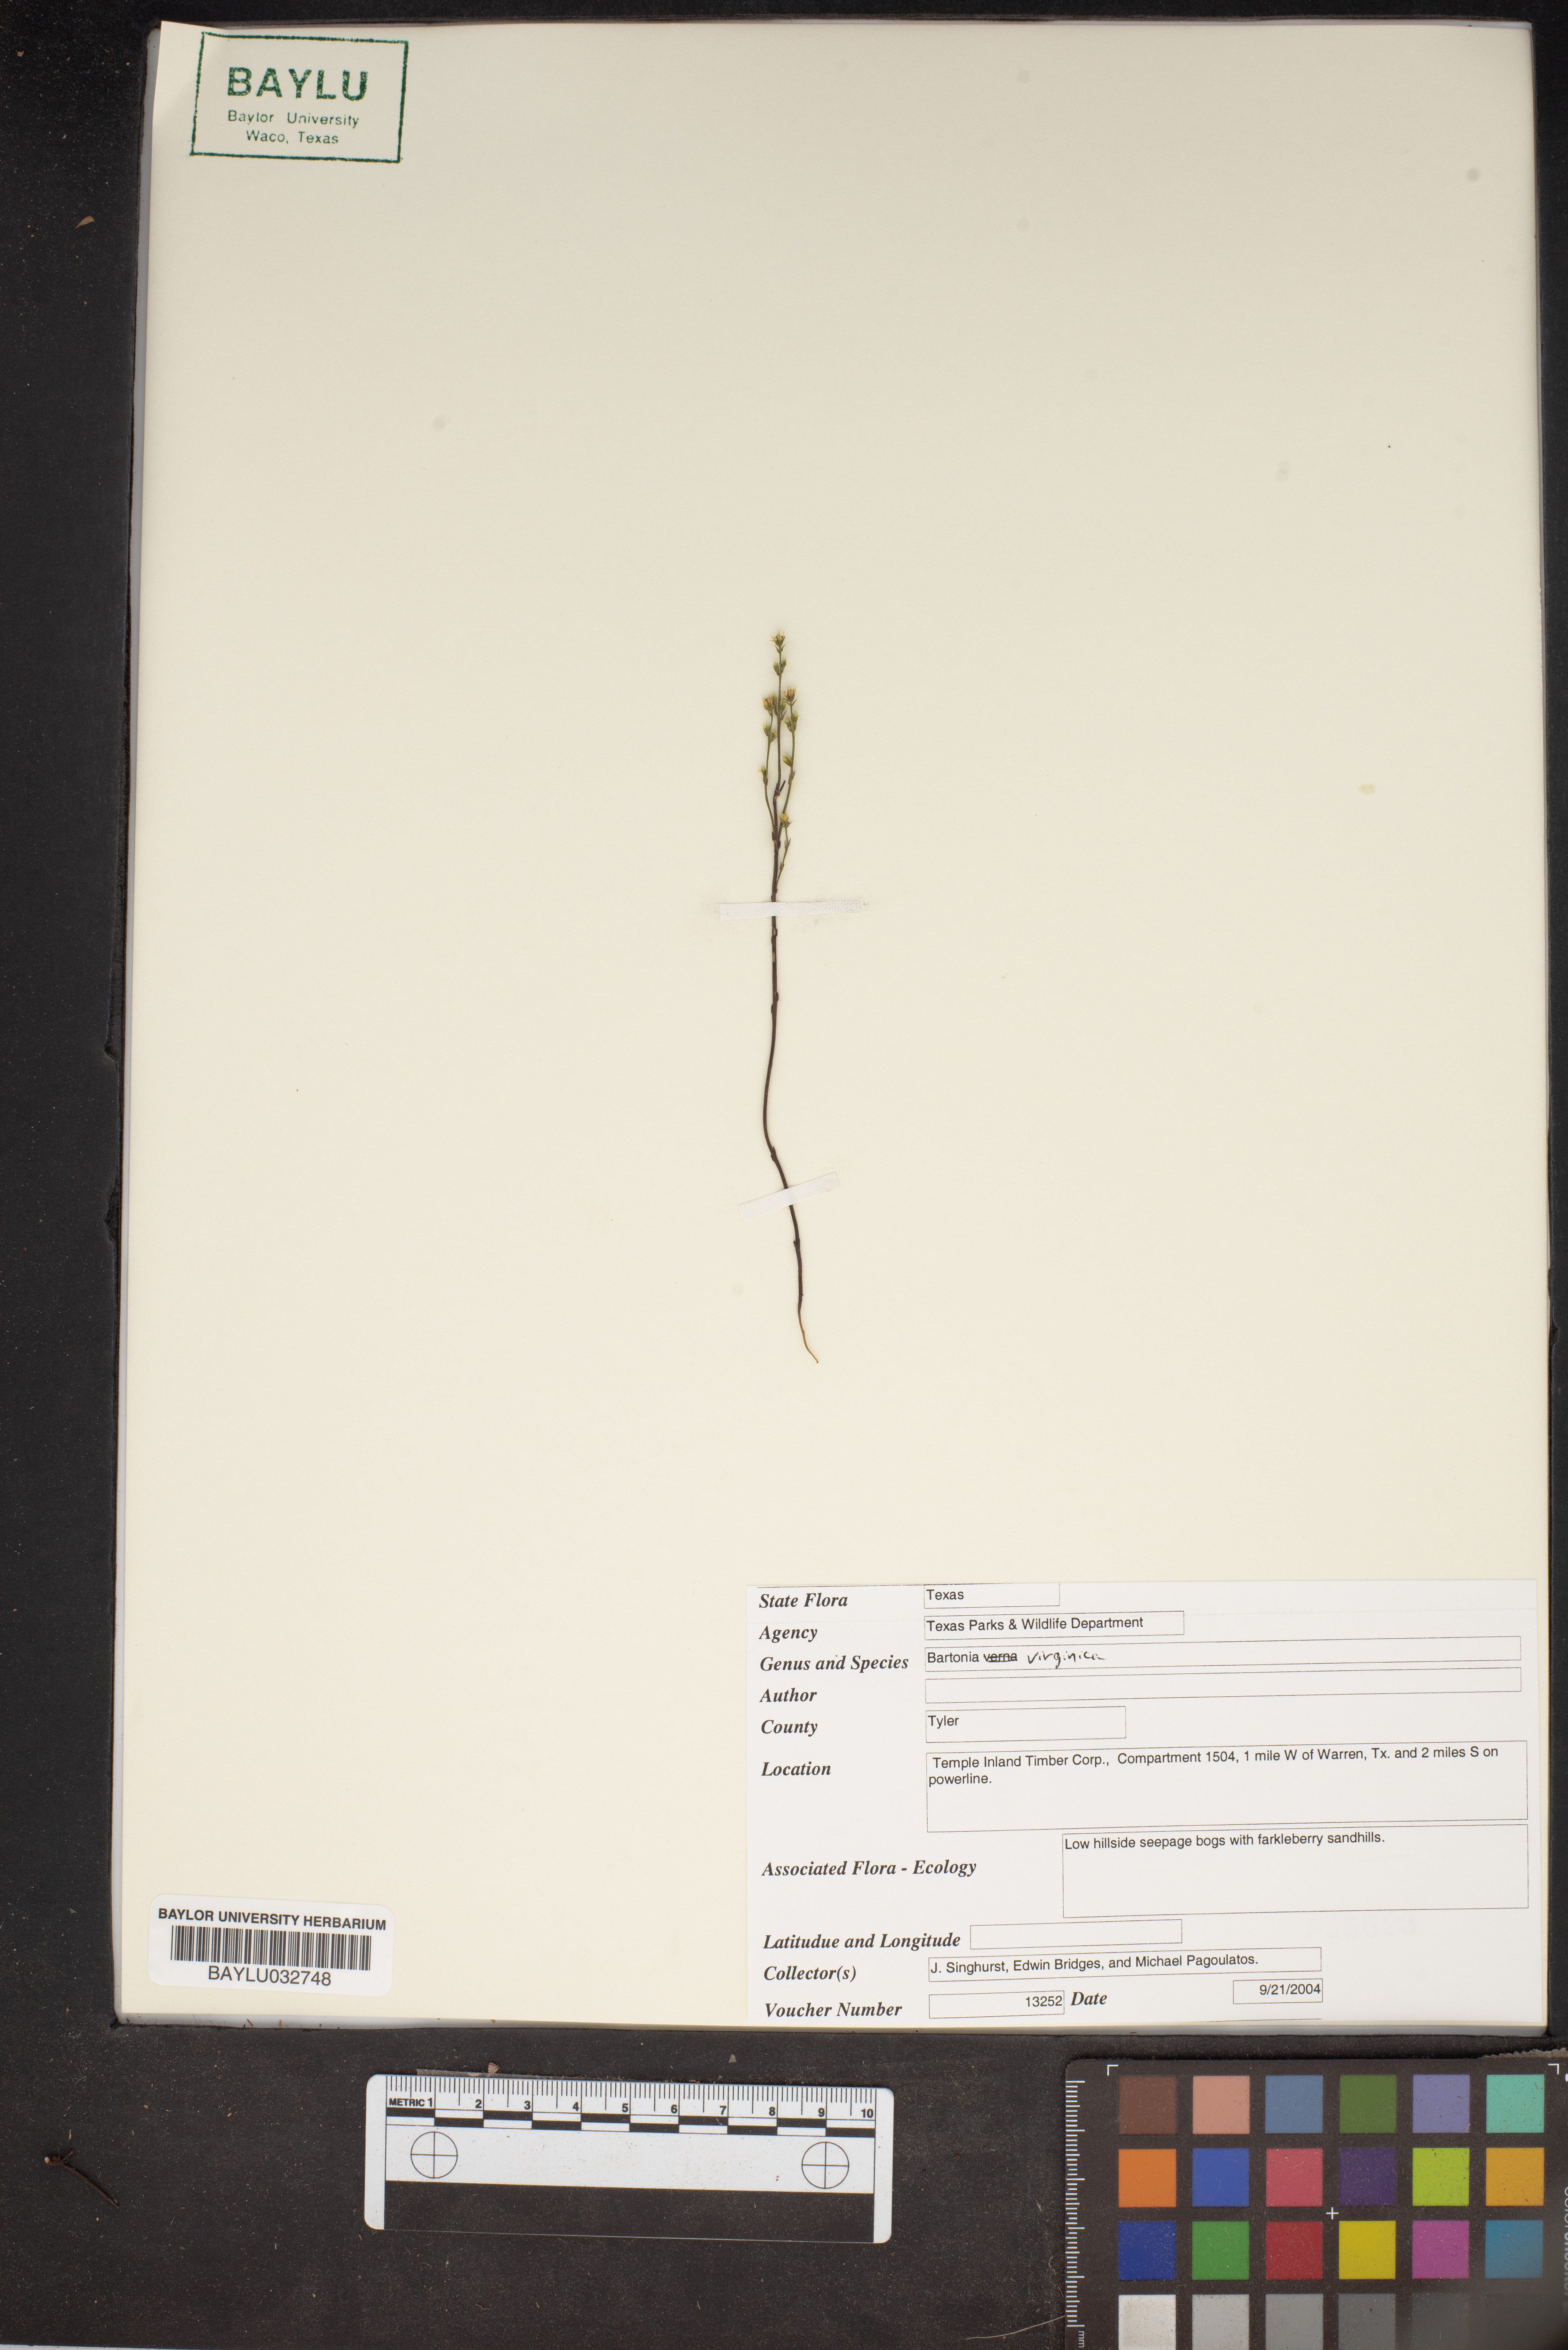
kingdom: Plantae
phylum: Tracheophyta
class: Magnoliopsida
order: Gentianales
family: Gentianaceae
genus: Bartonia
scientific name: Bartonia virginica
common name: Yellow bartonia
